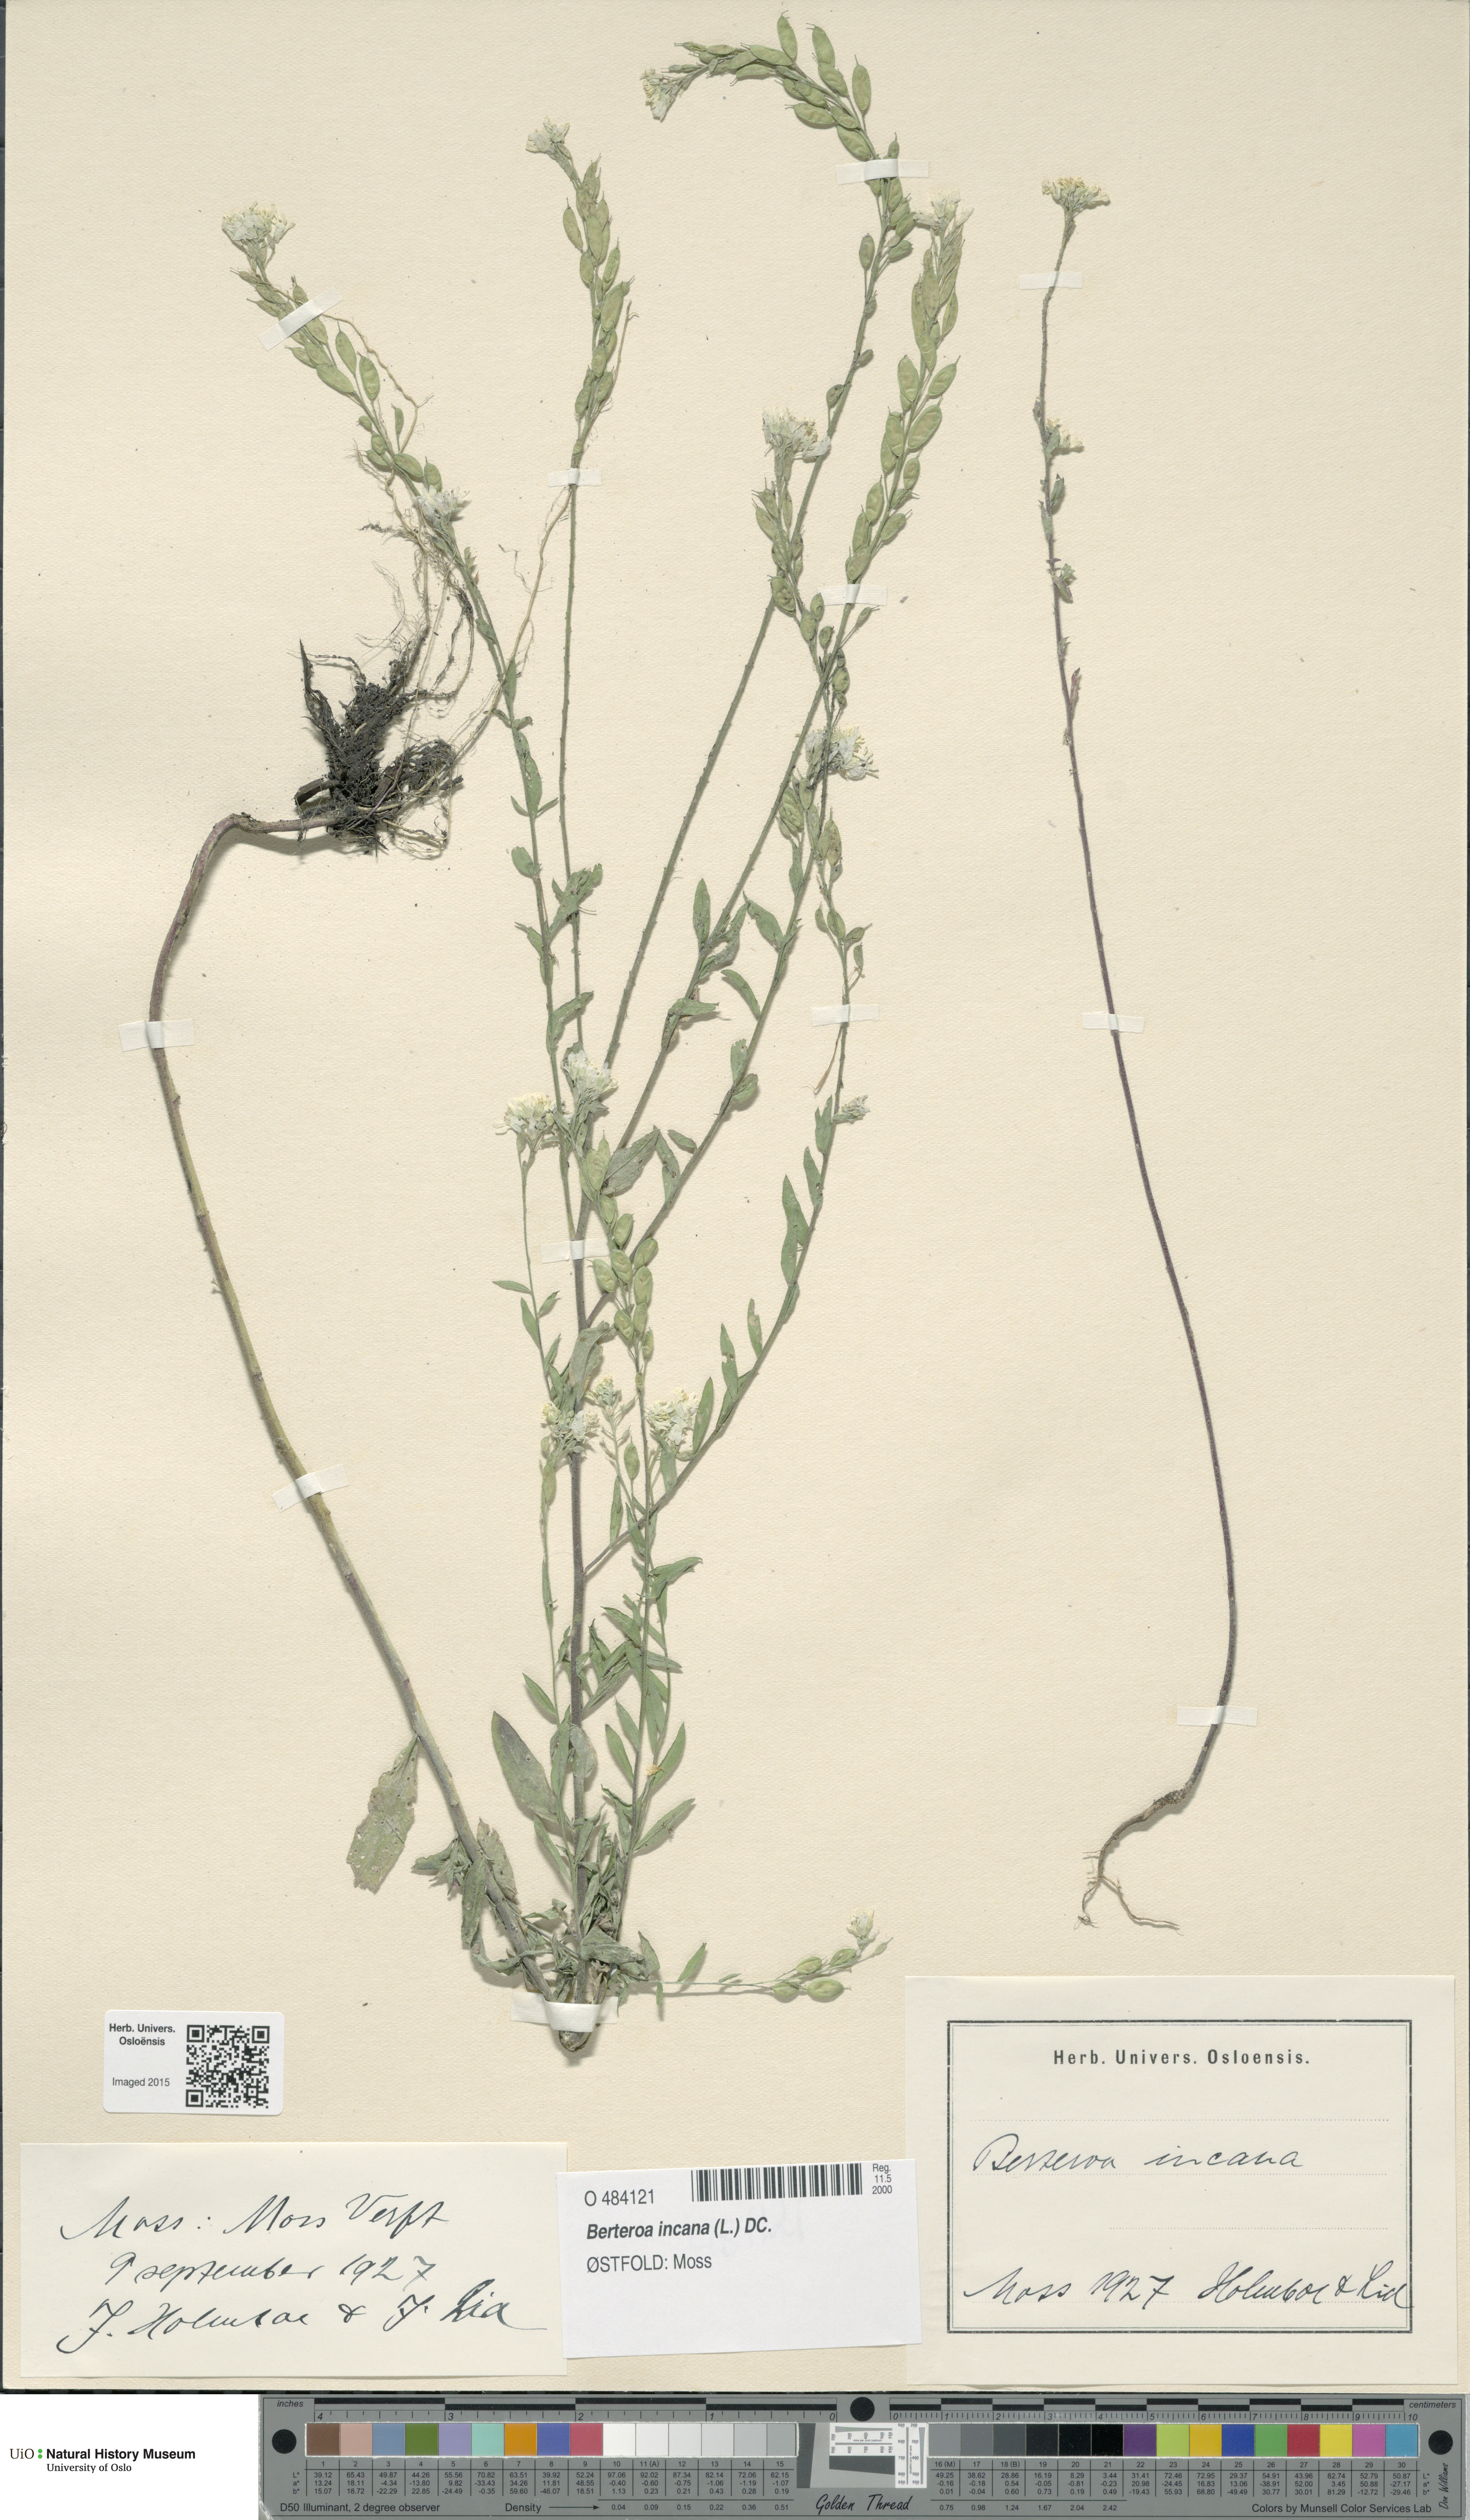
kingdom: Plantae
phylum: Tracheophyta
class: Magnoliopsida
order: Brassicales
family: Brassicaceae
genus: Berteroa
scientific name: Berteroa incana
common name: Hoary alison
